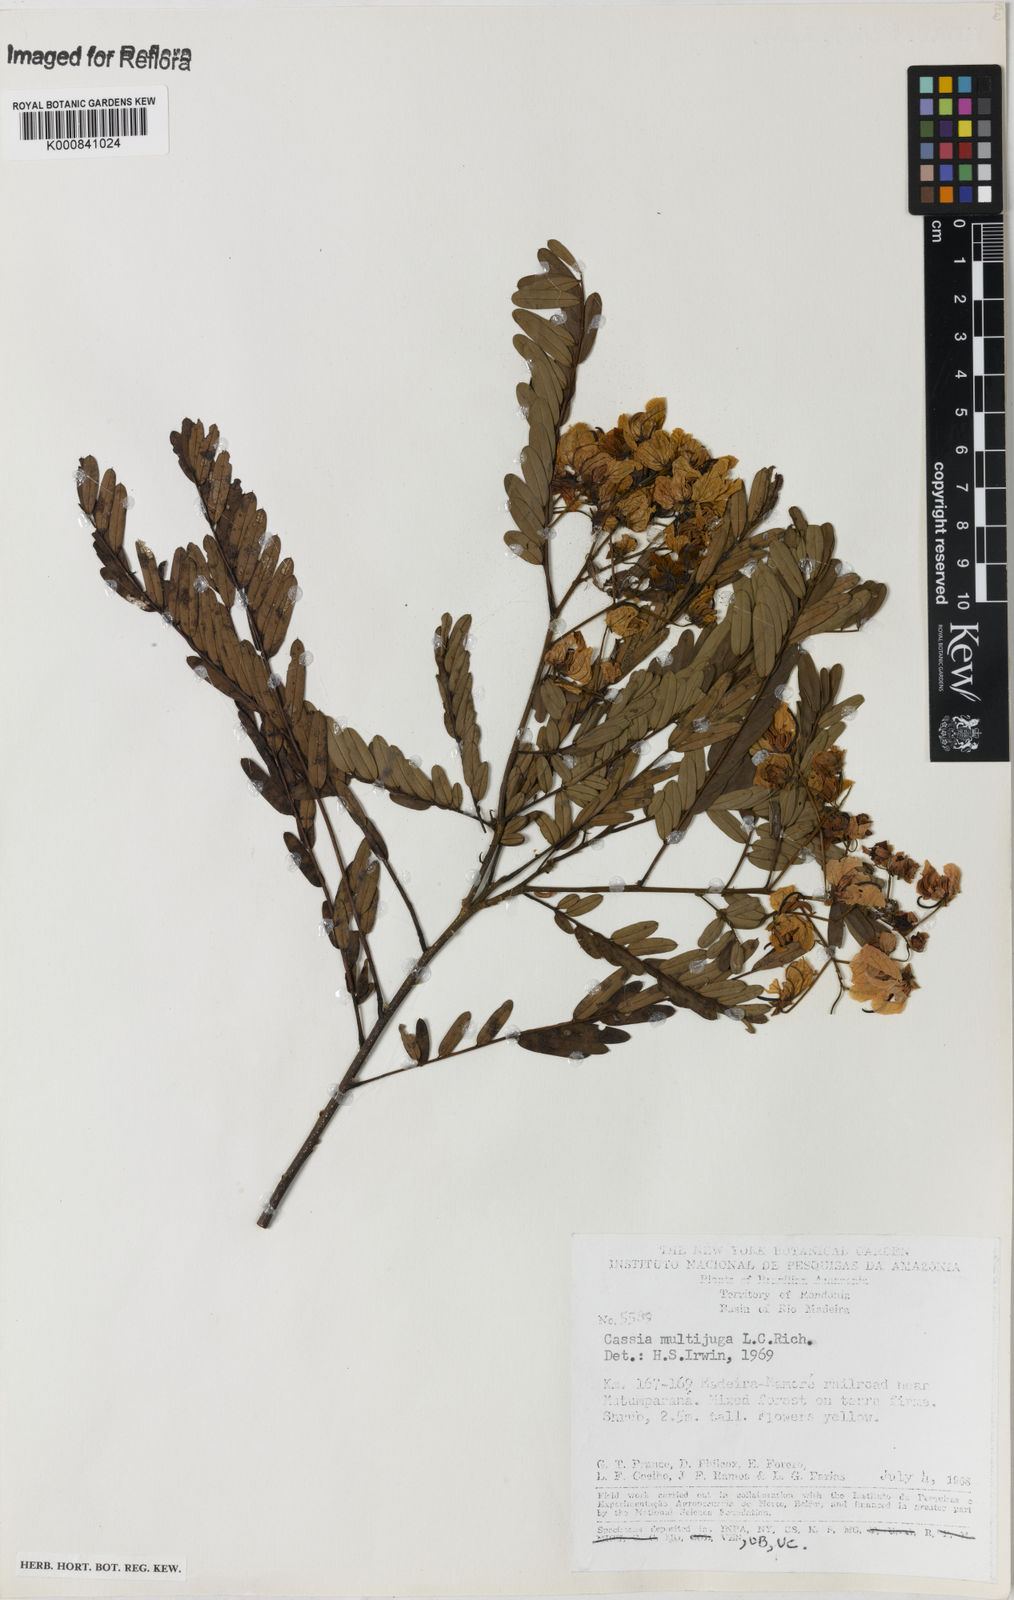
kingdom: Plantae
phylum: Tracheophyta
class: Magnoliopsida
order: Fabales
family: Fabaceae
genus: Senna
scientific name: Senna multijuga
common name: False sicklepod
